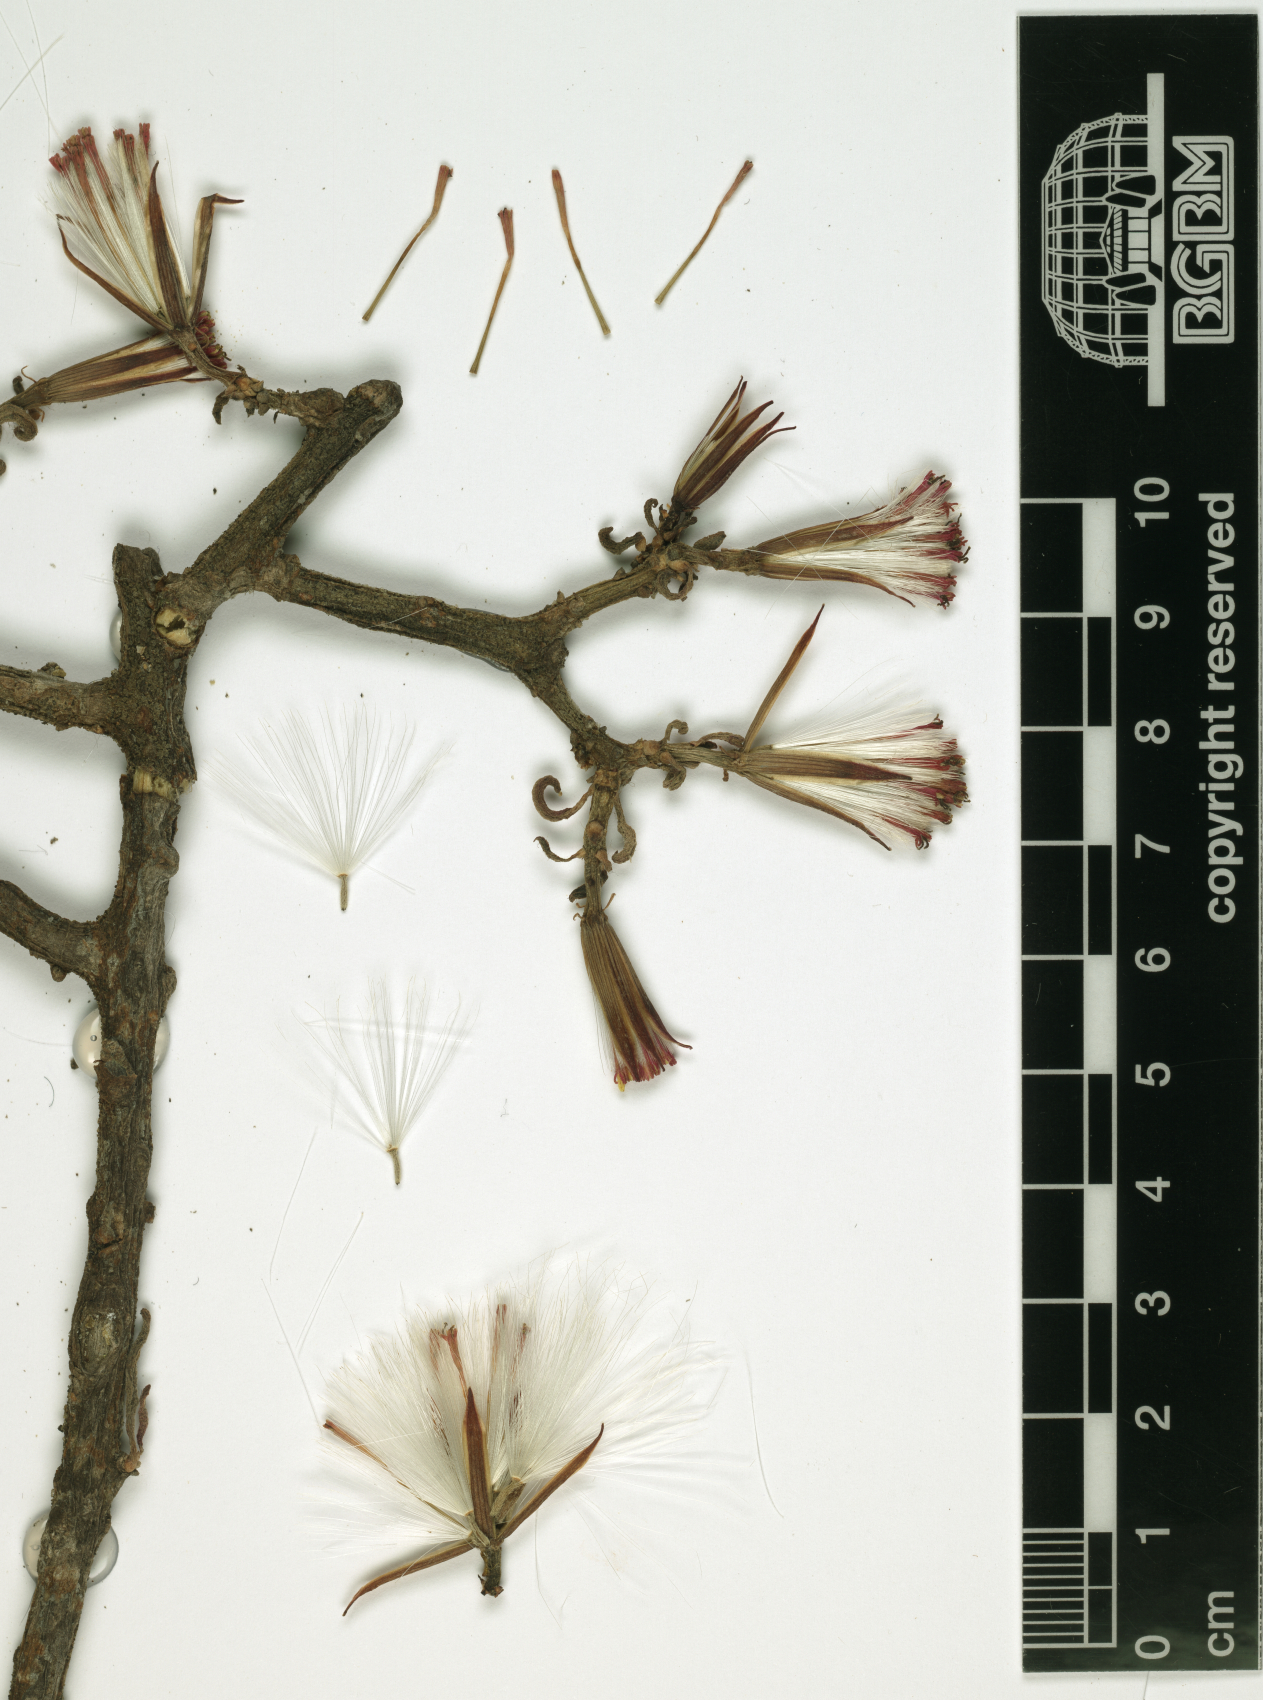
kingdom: Plantae
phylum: Tracheophyta
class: Magnoliopsida
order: Asterales
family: Asteraceae
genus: Kleinia
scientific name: Kleinia squarrosa
